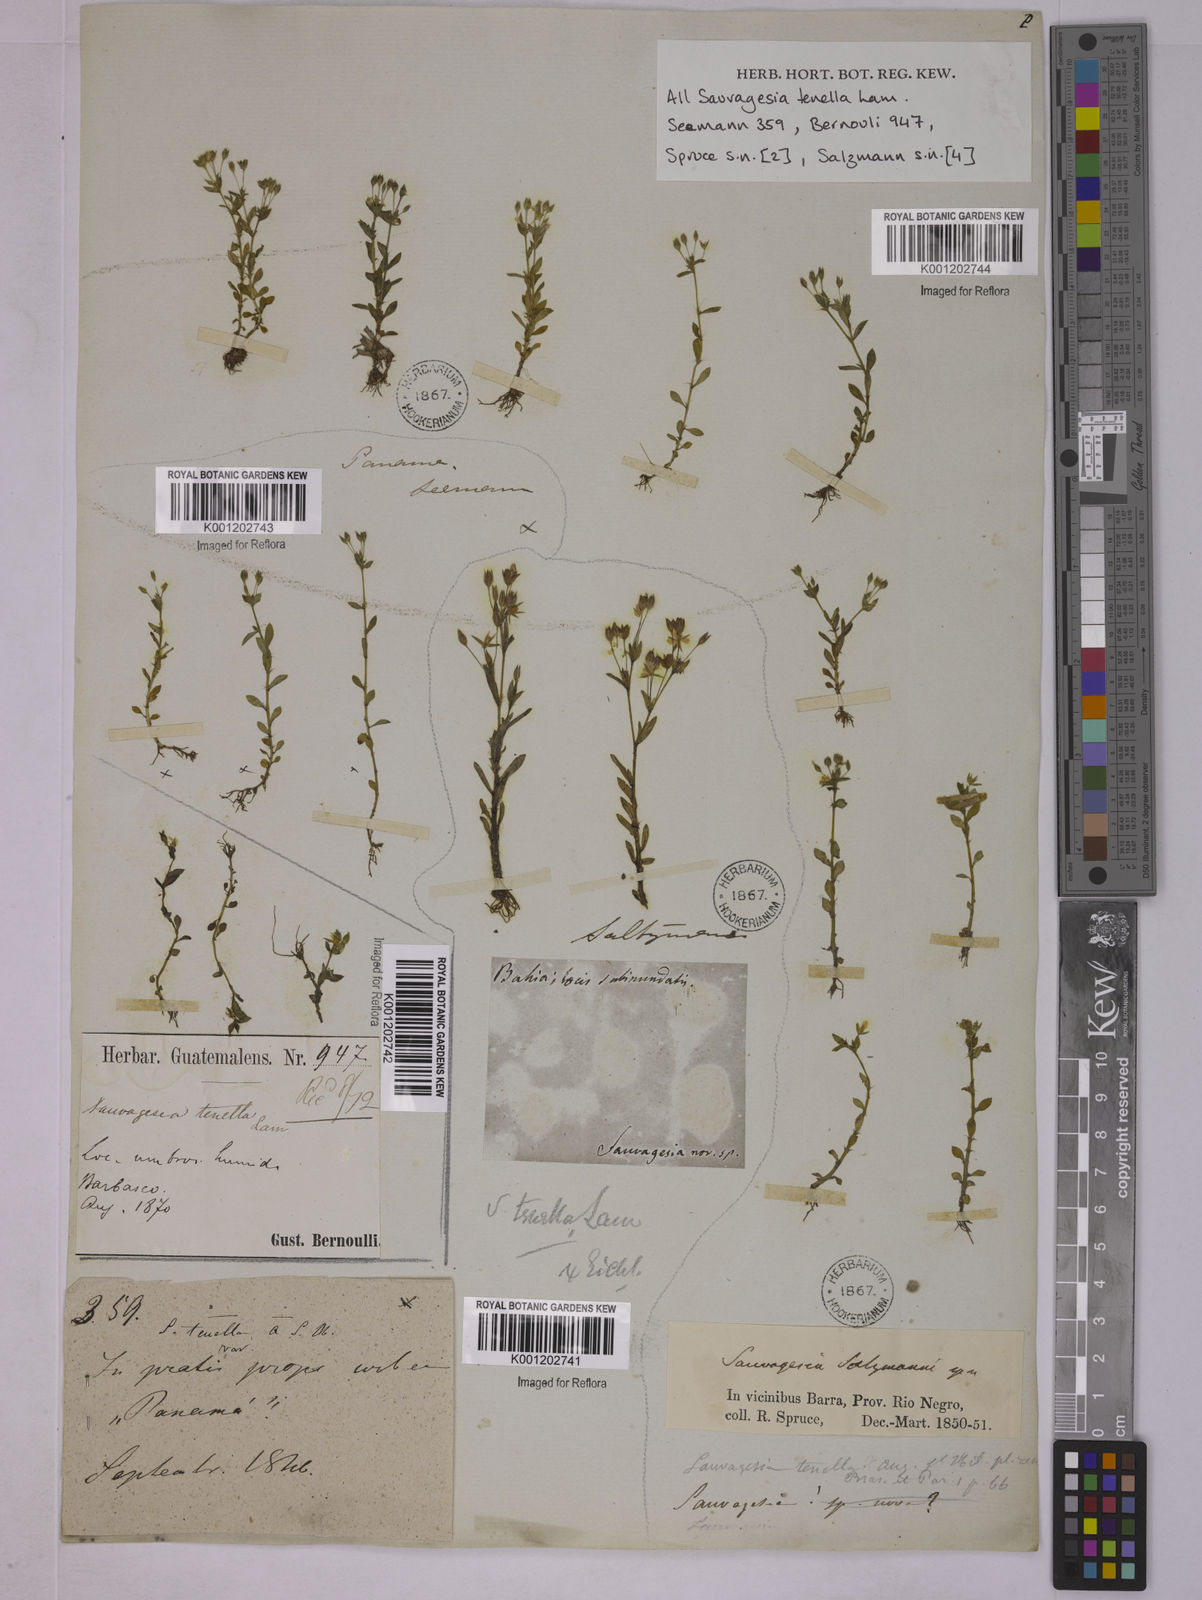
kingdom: Plantae
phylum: Tracheophyta
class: Magnoliopsida
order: Malpighiales
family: Ochnaceae
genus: Sauvagesia
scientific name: Sauvagesia tenella
